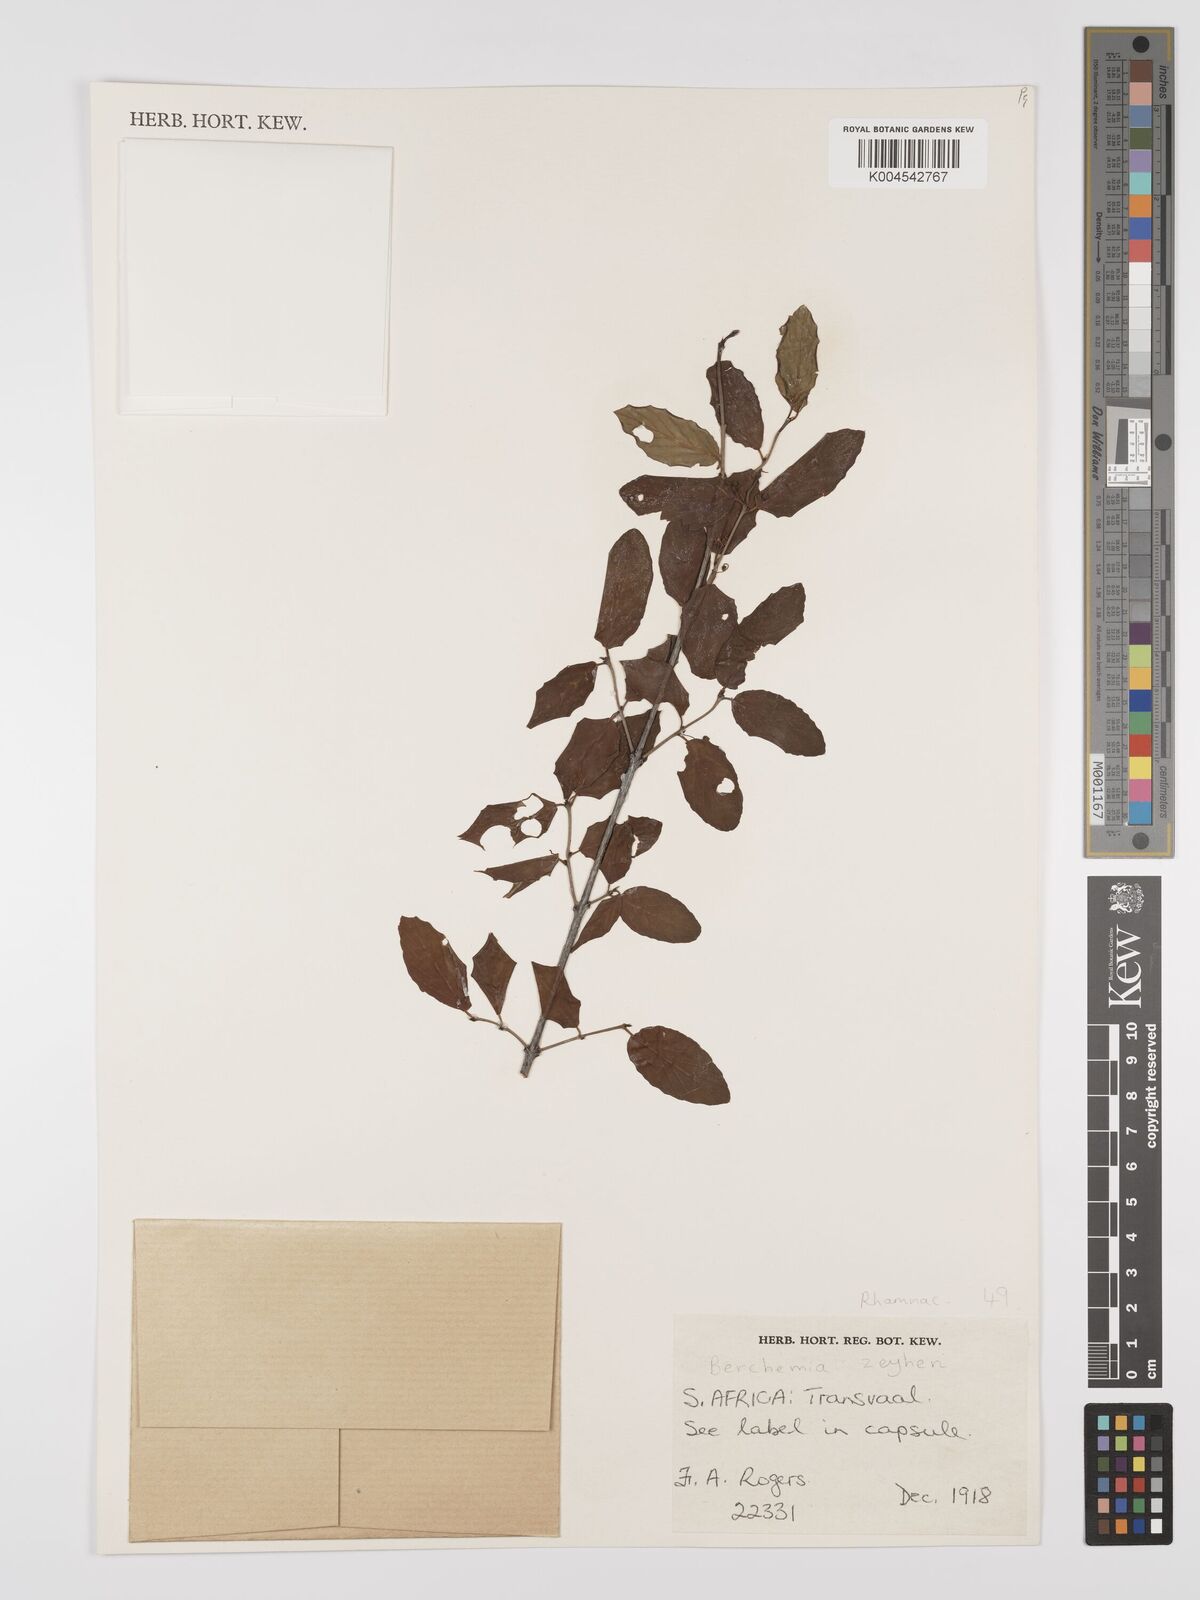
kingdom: Plantae
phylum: Tracheophyta
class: Magnoliopsida
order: Rosales
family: Rhamnaceae
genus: Phyllogeiton
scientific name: Phyllogeiton zeyheri
